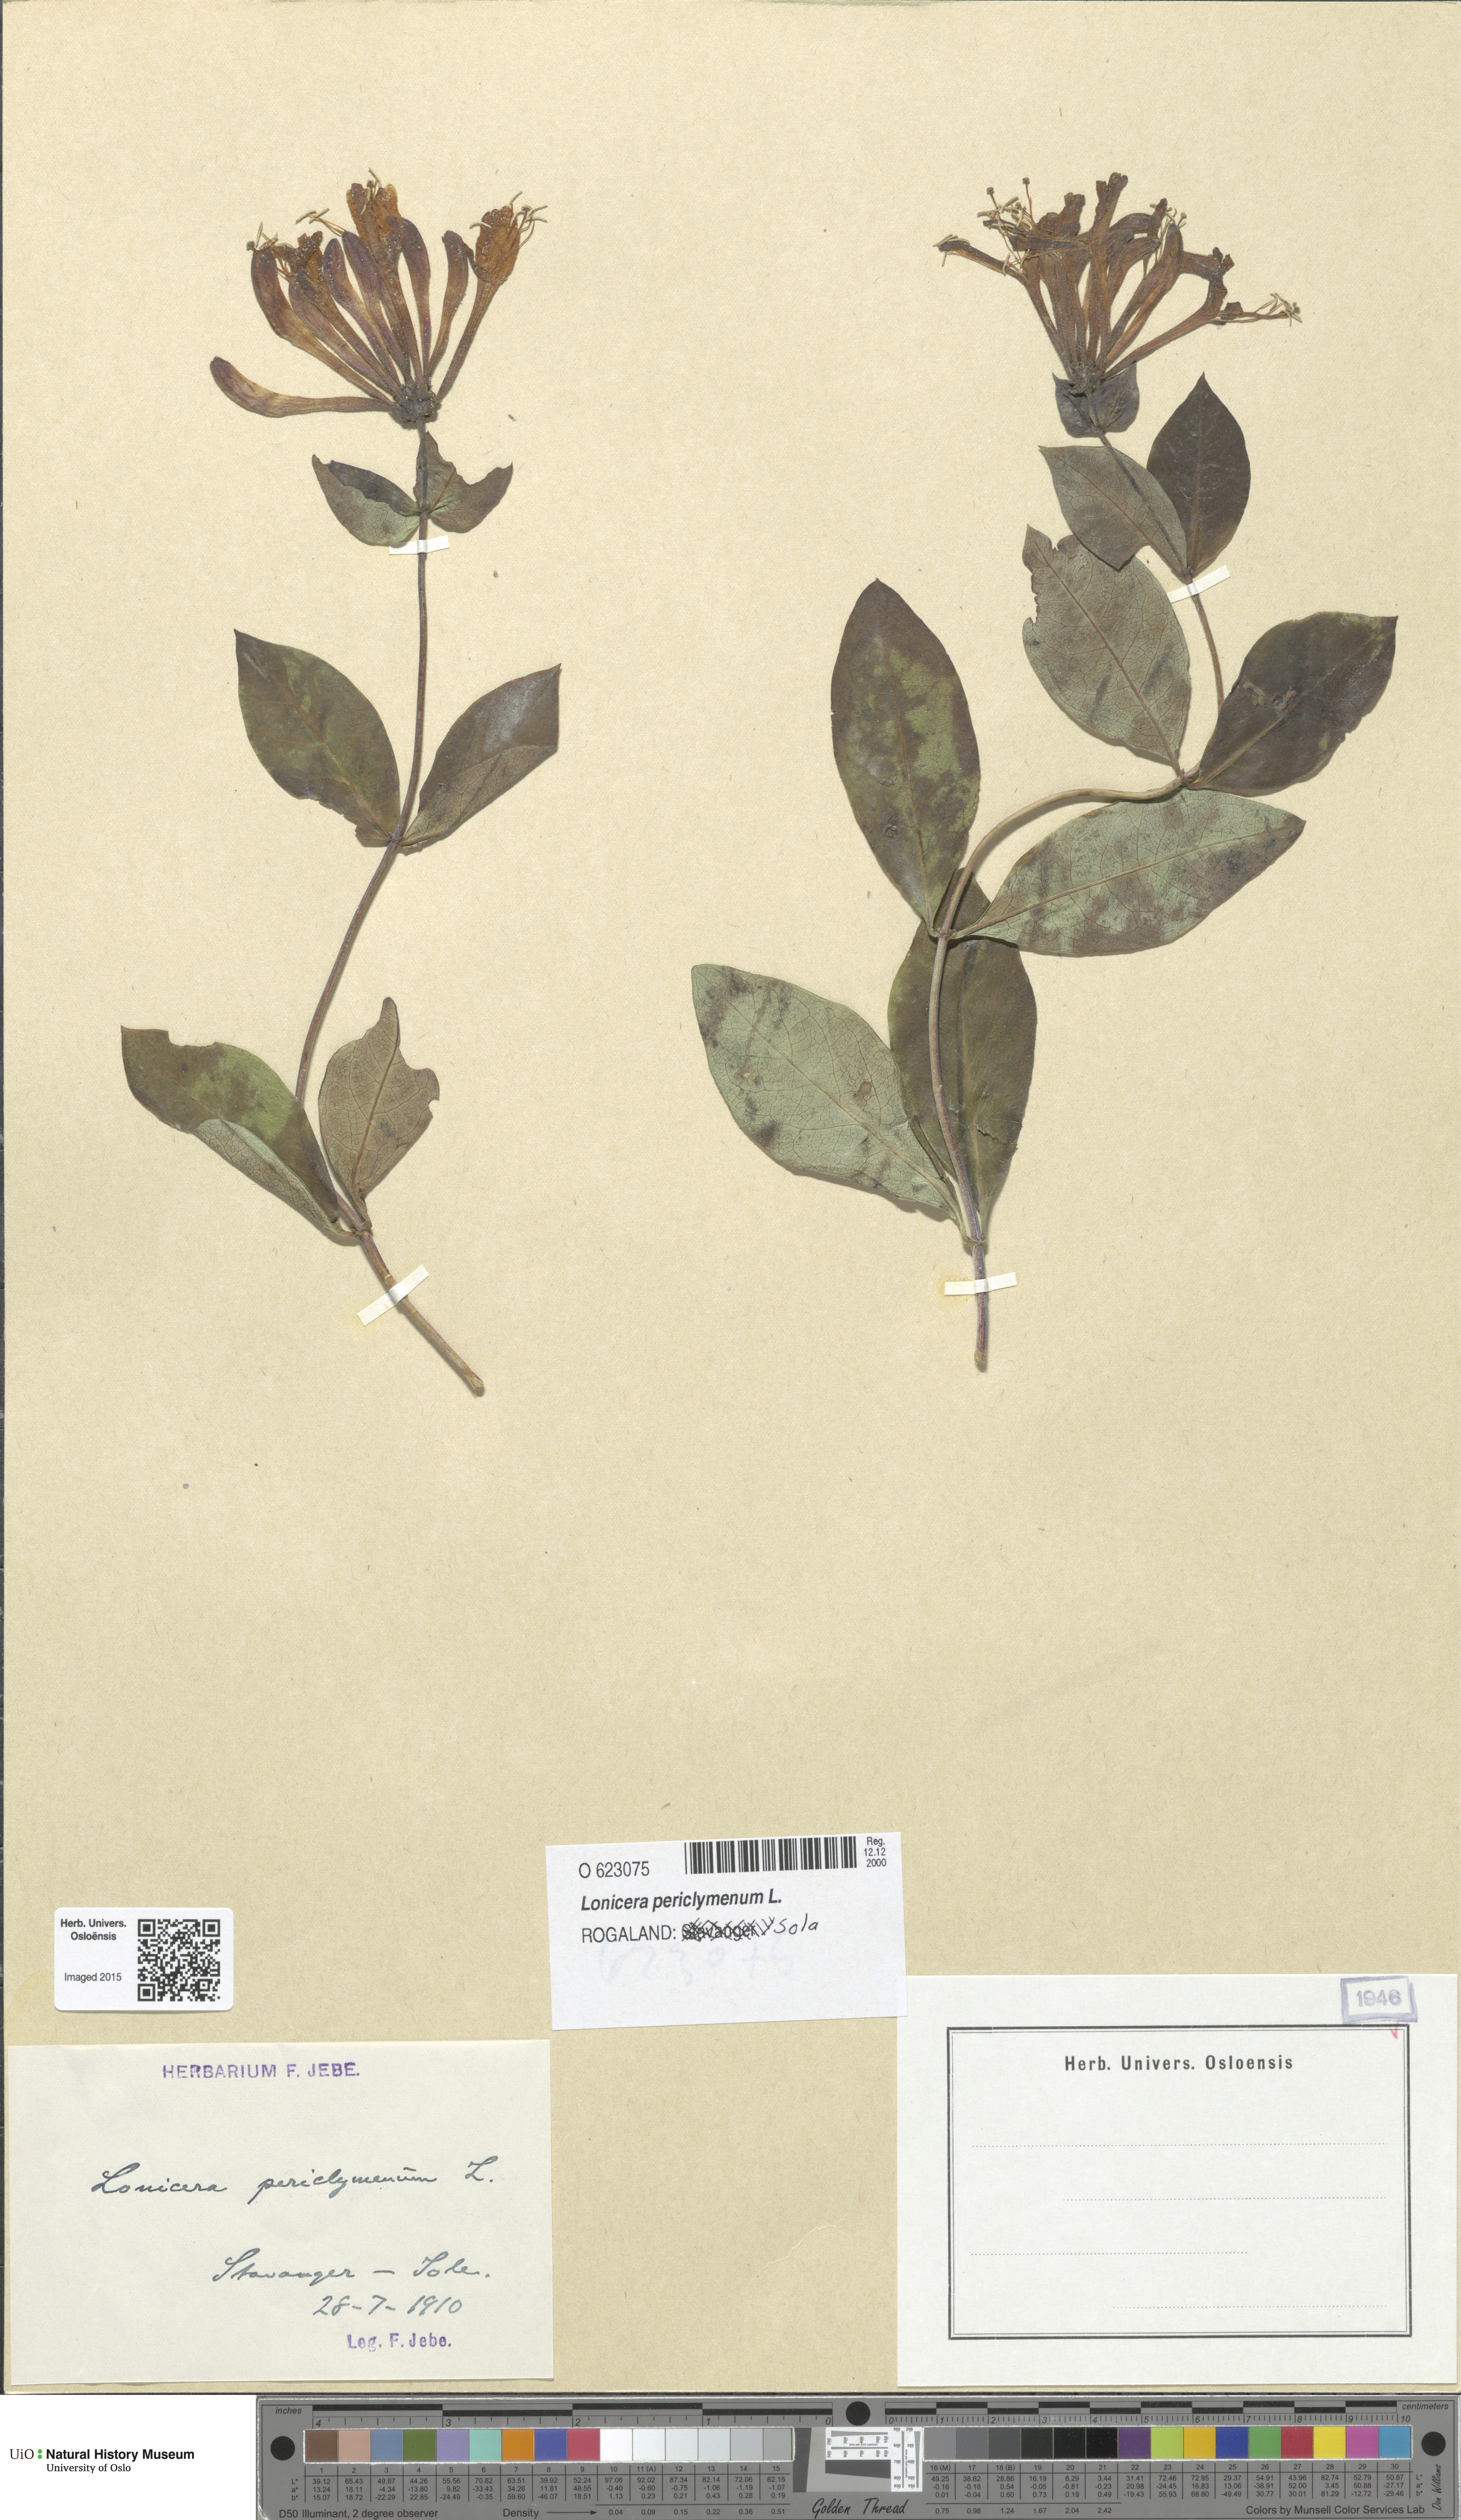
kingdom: Plantae
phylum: Tracheophyta
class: Magnoliopsida
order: Dipsacales
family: Caprifoliaceae
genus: Lonicera
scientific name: Lonicera periclymenum
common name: European honeysuckle
